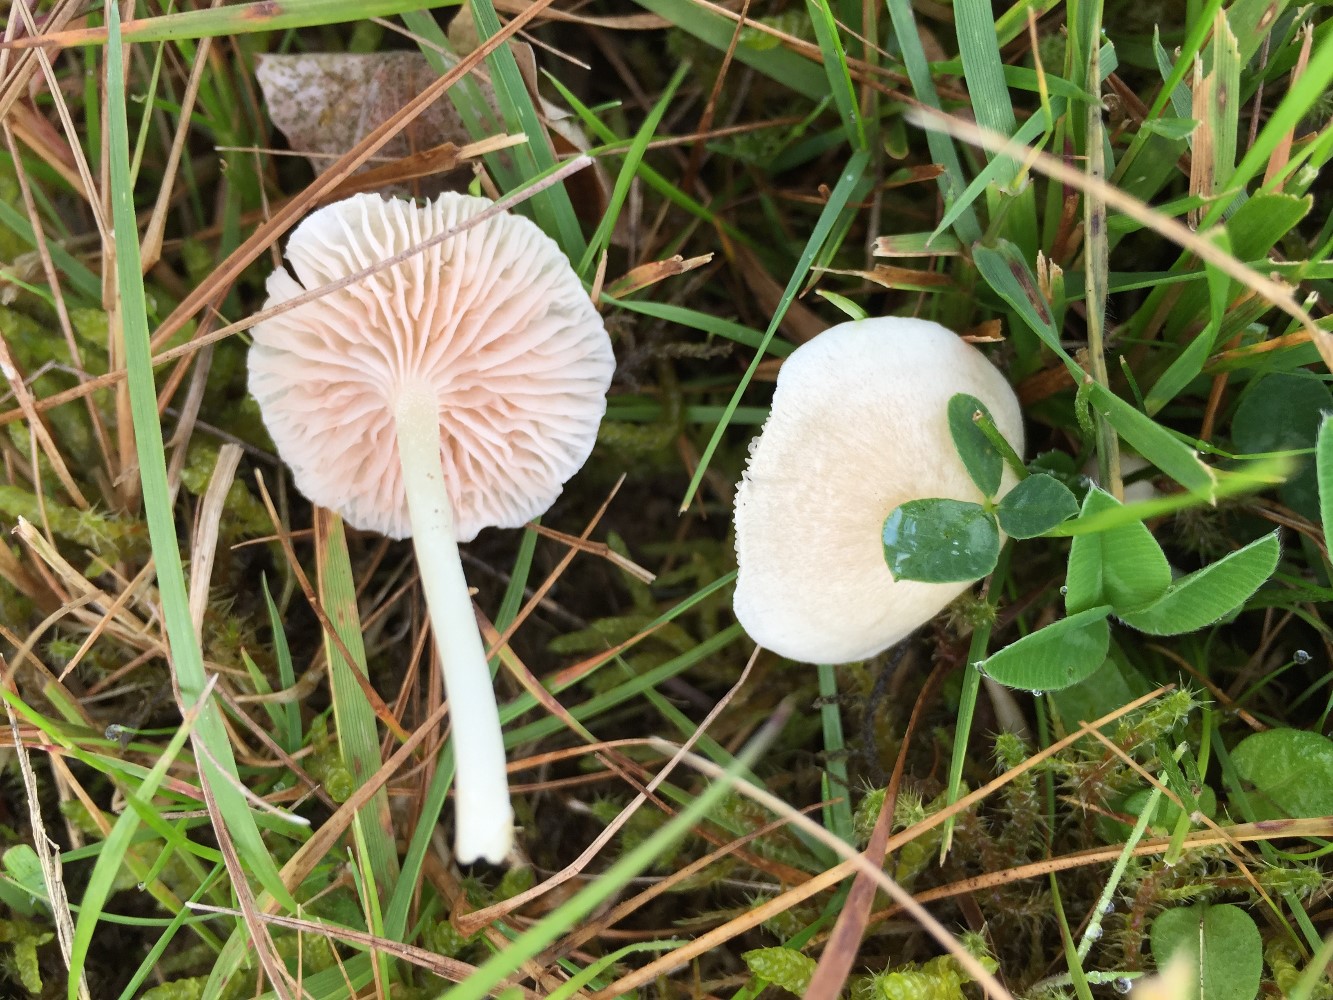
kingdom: Fungi
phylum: Basidiomycota
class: Agaricomycetes
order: Agaricales
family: Entolomataceae
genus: Entoloma
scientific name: Entoloma sericellum
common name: silkehvid rødblad
